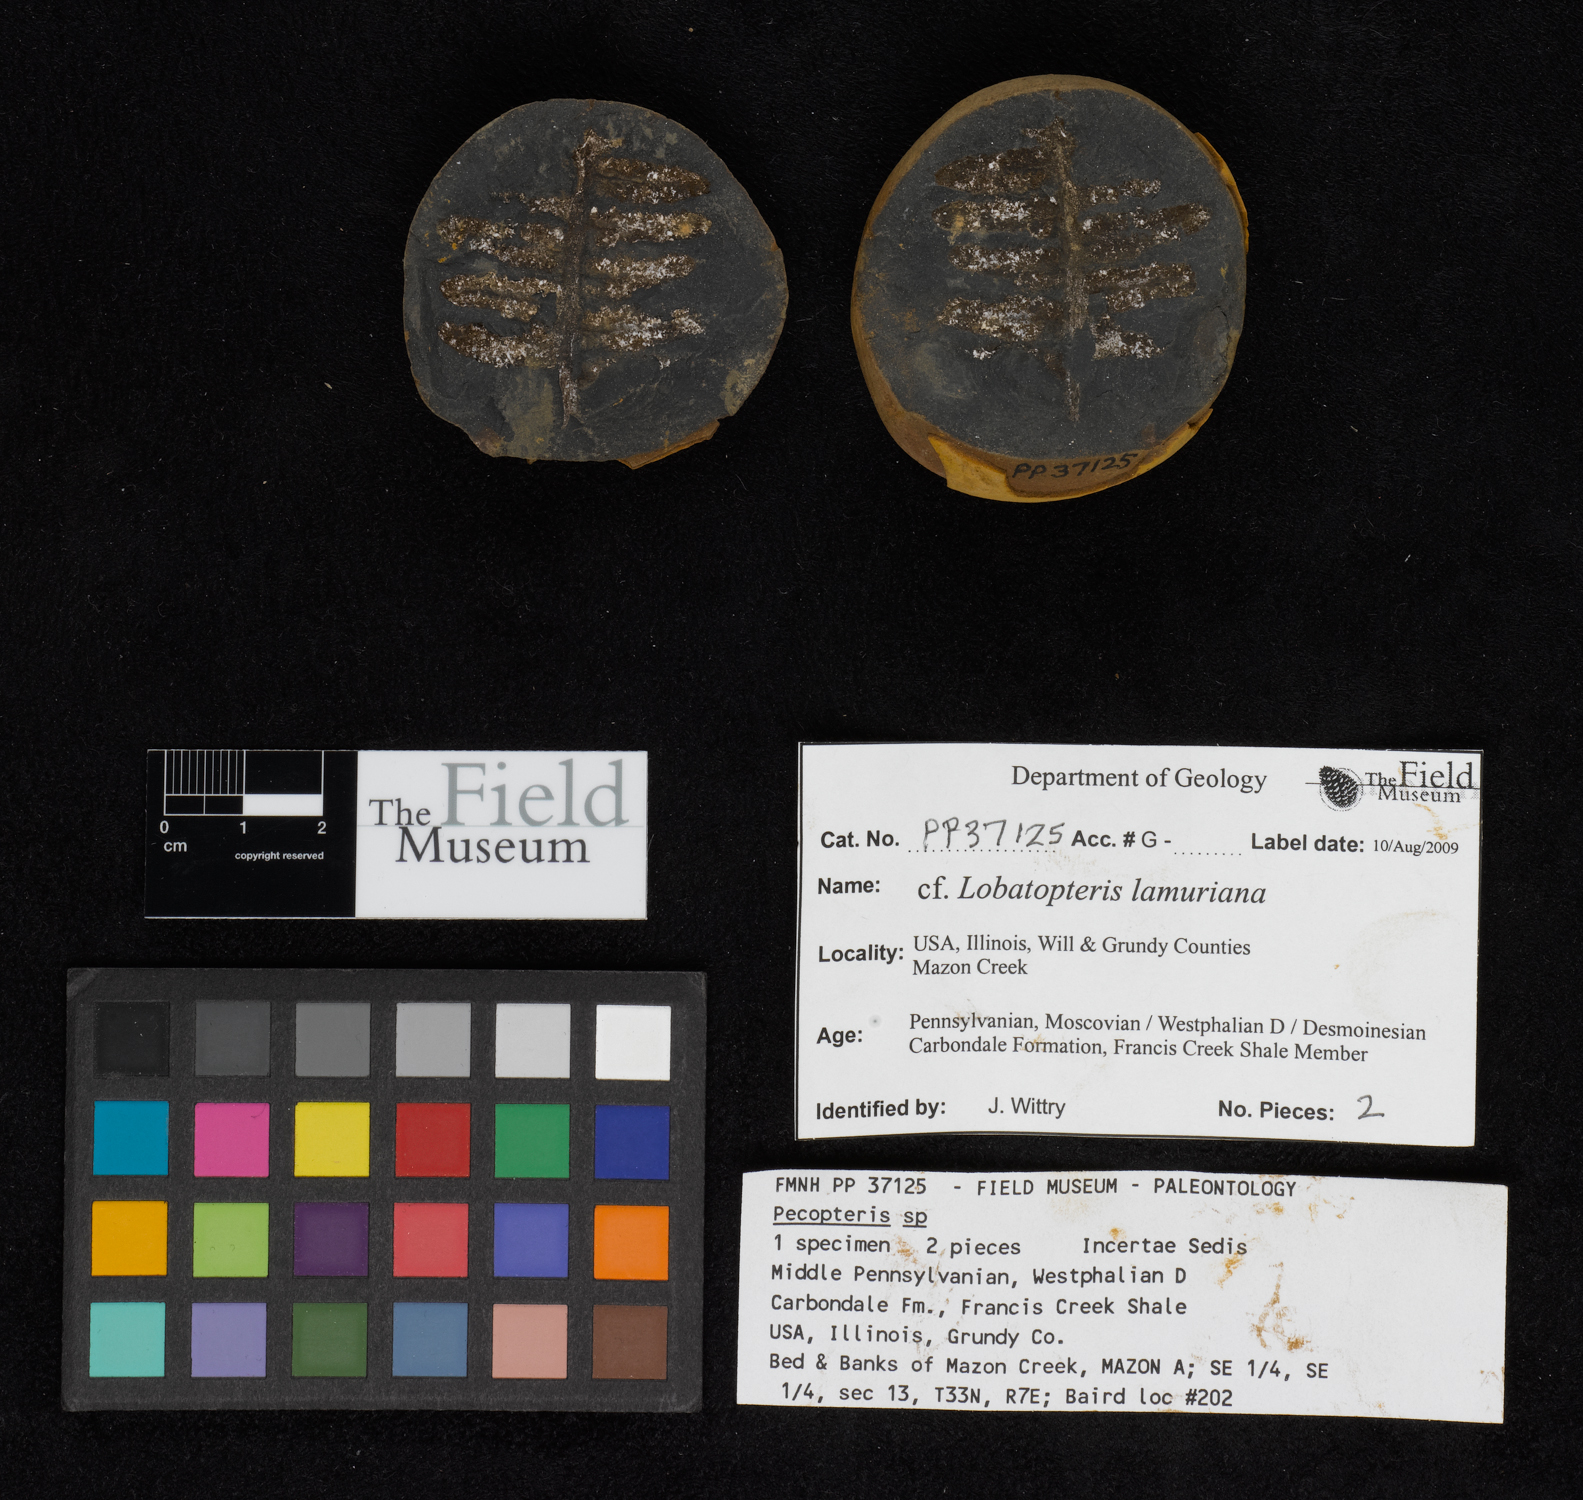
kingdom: Plantae
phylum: Tracheophyta
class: Polypodiopsida
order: Marattiales
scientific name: Marattiales
